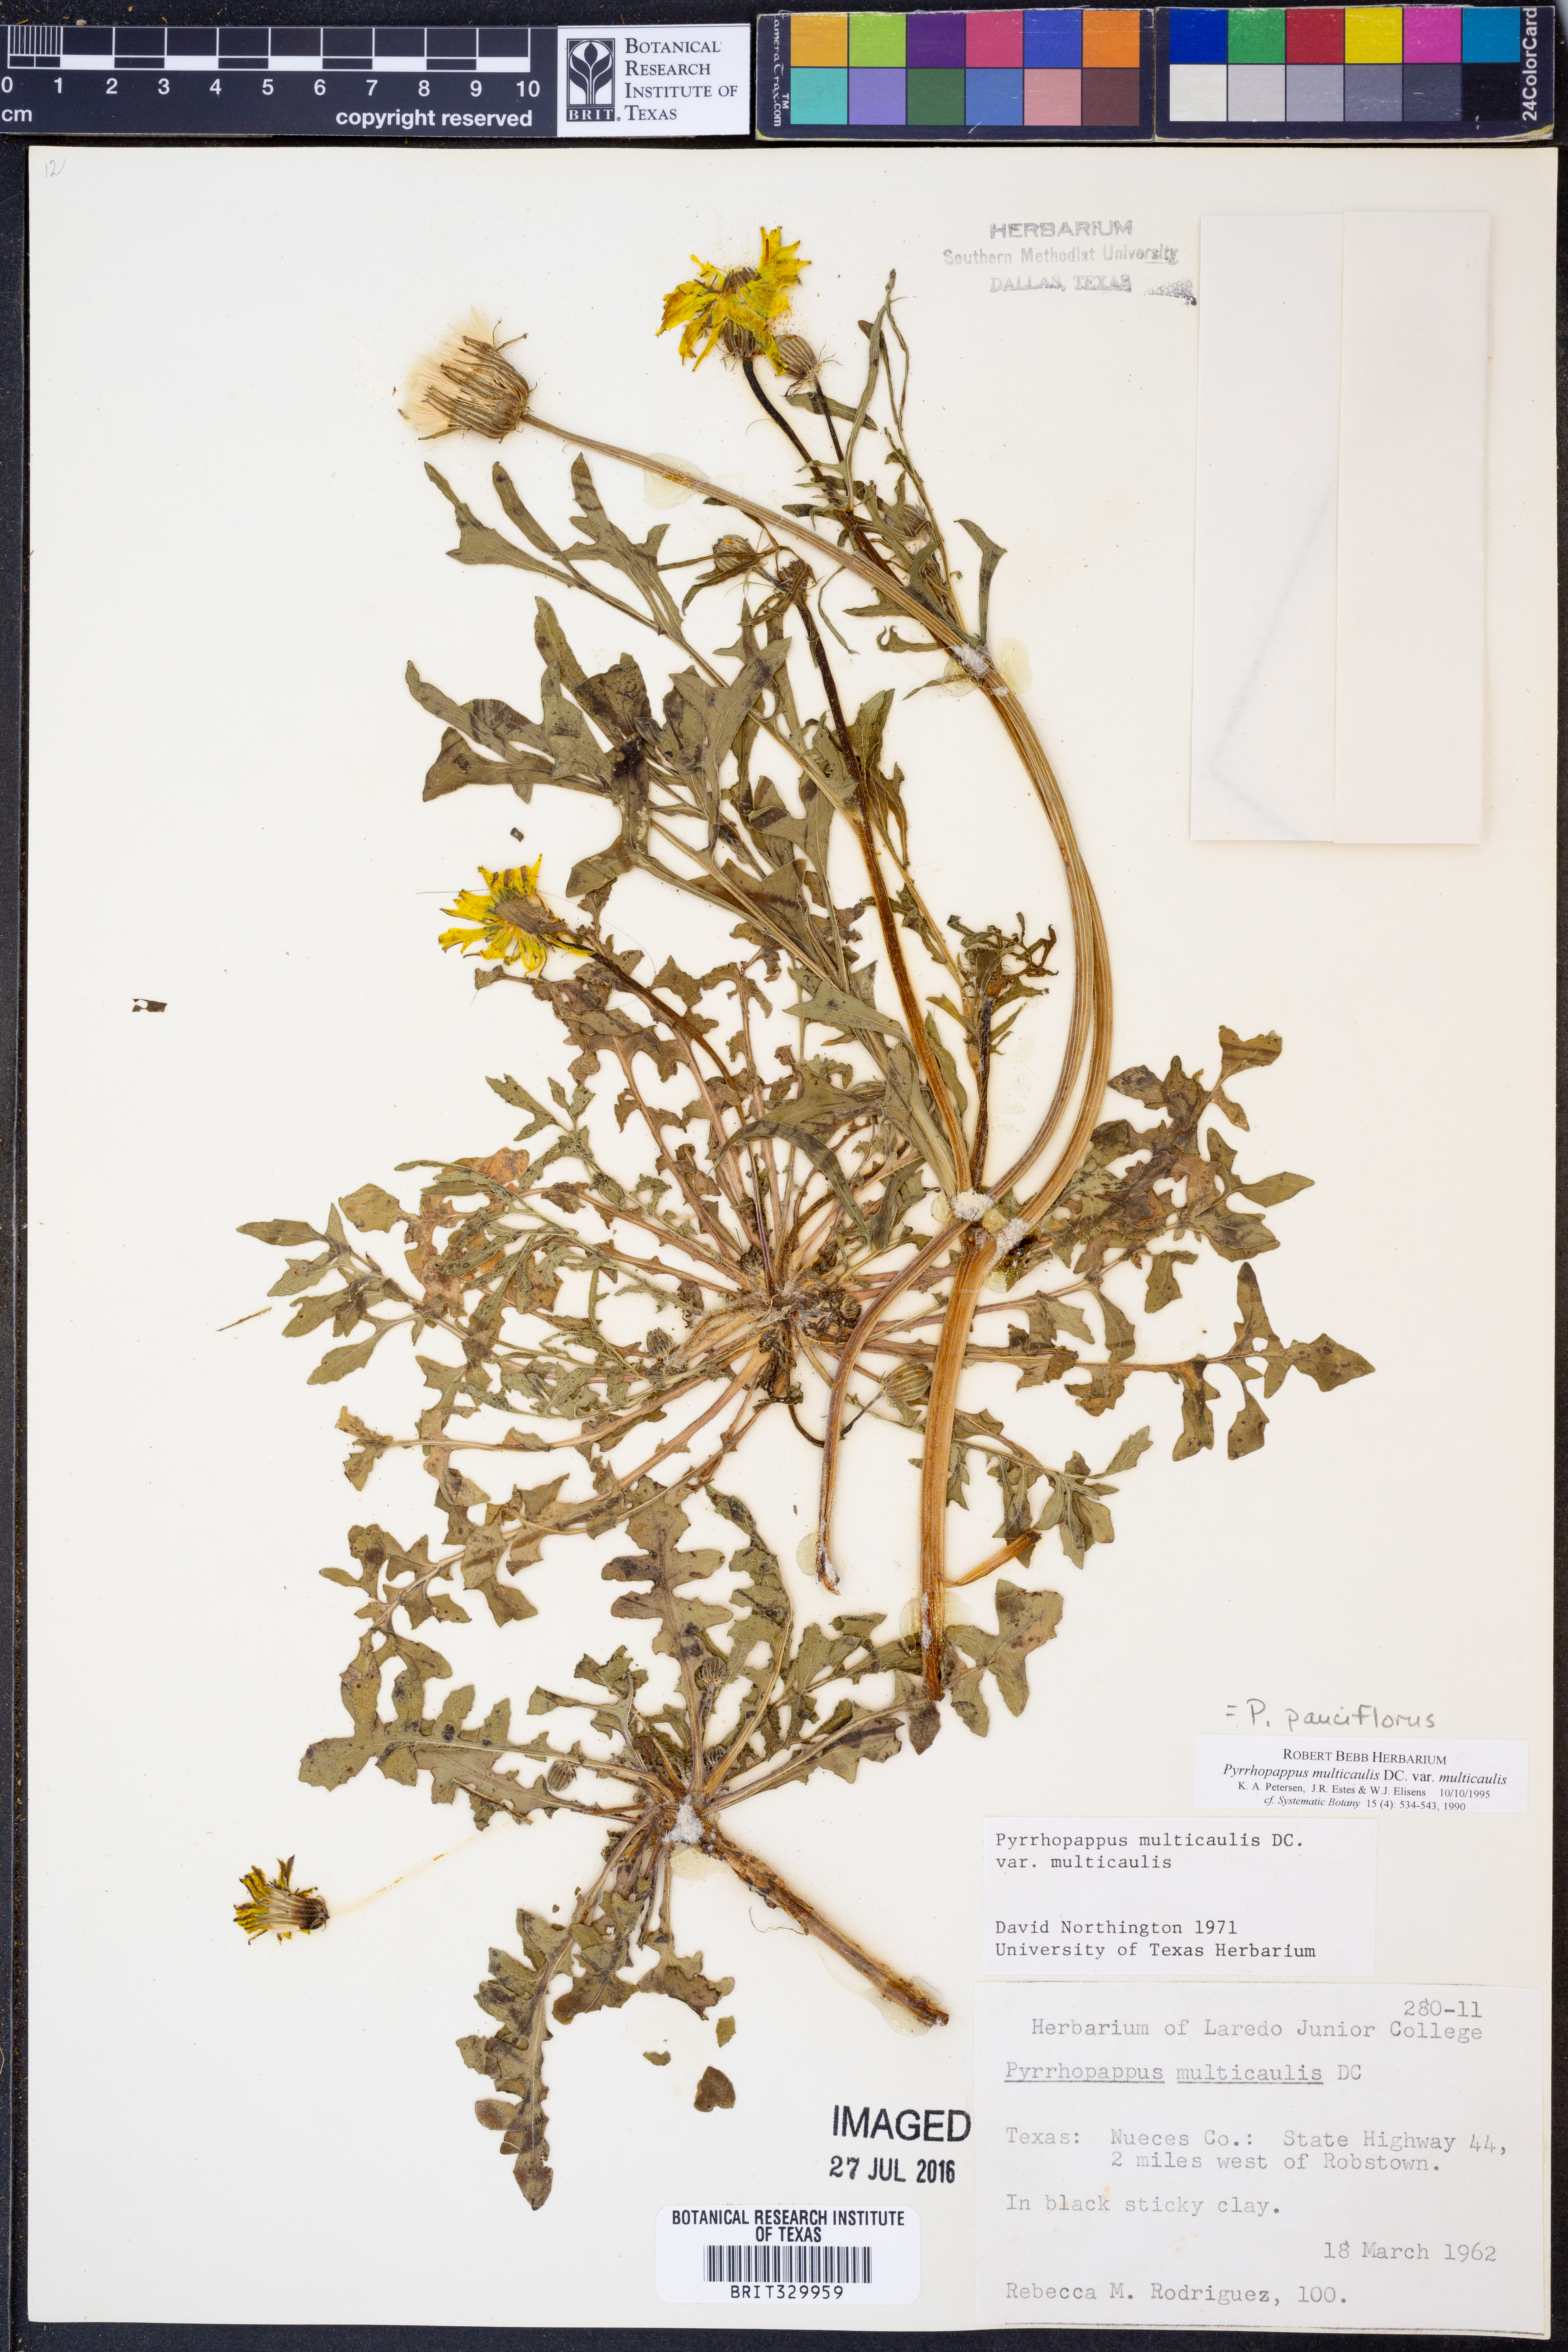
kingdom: Plantae
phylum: Tracheophyta
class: Magnoliopsida
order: Asterales
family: Asteraceae
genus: Pyrrhopappus
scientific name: Pyrrhopappus pauciflorus
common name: Texas false dandelion
